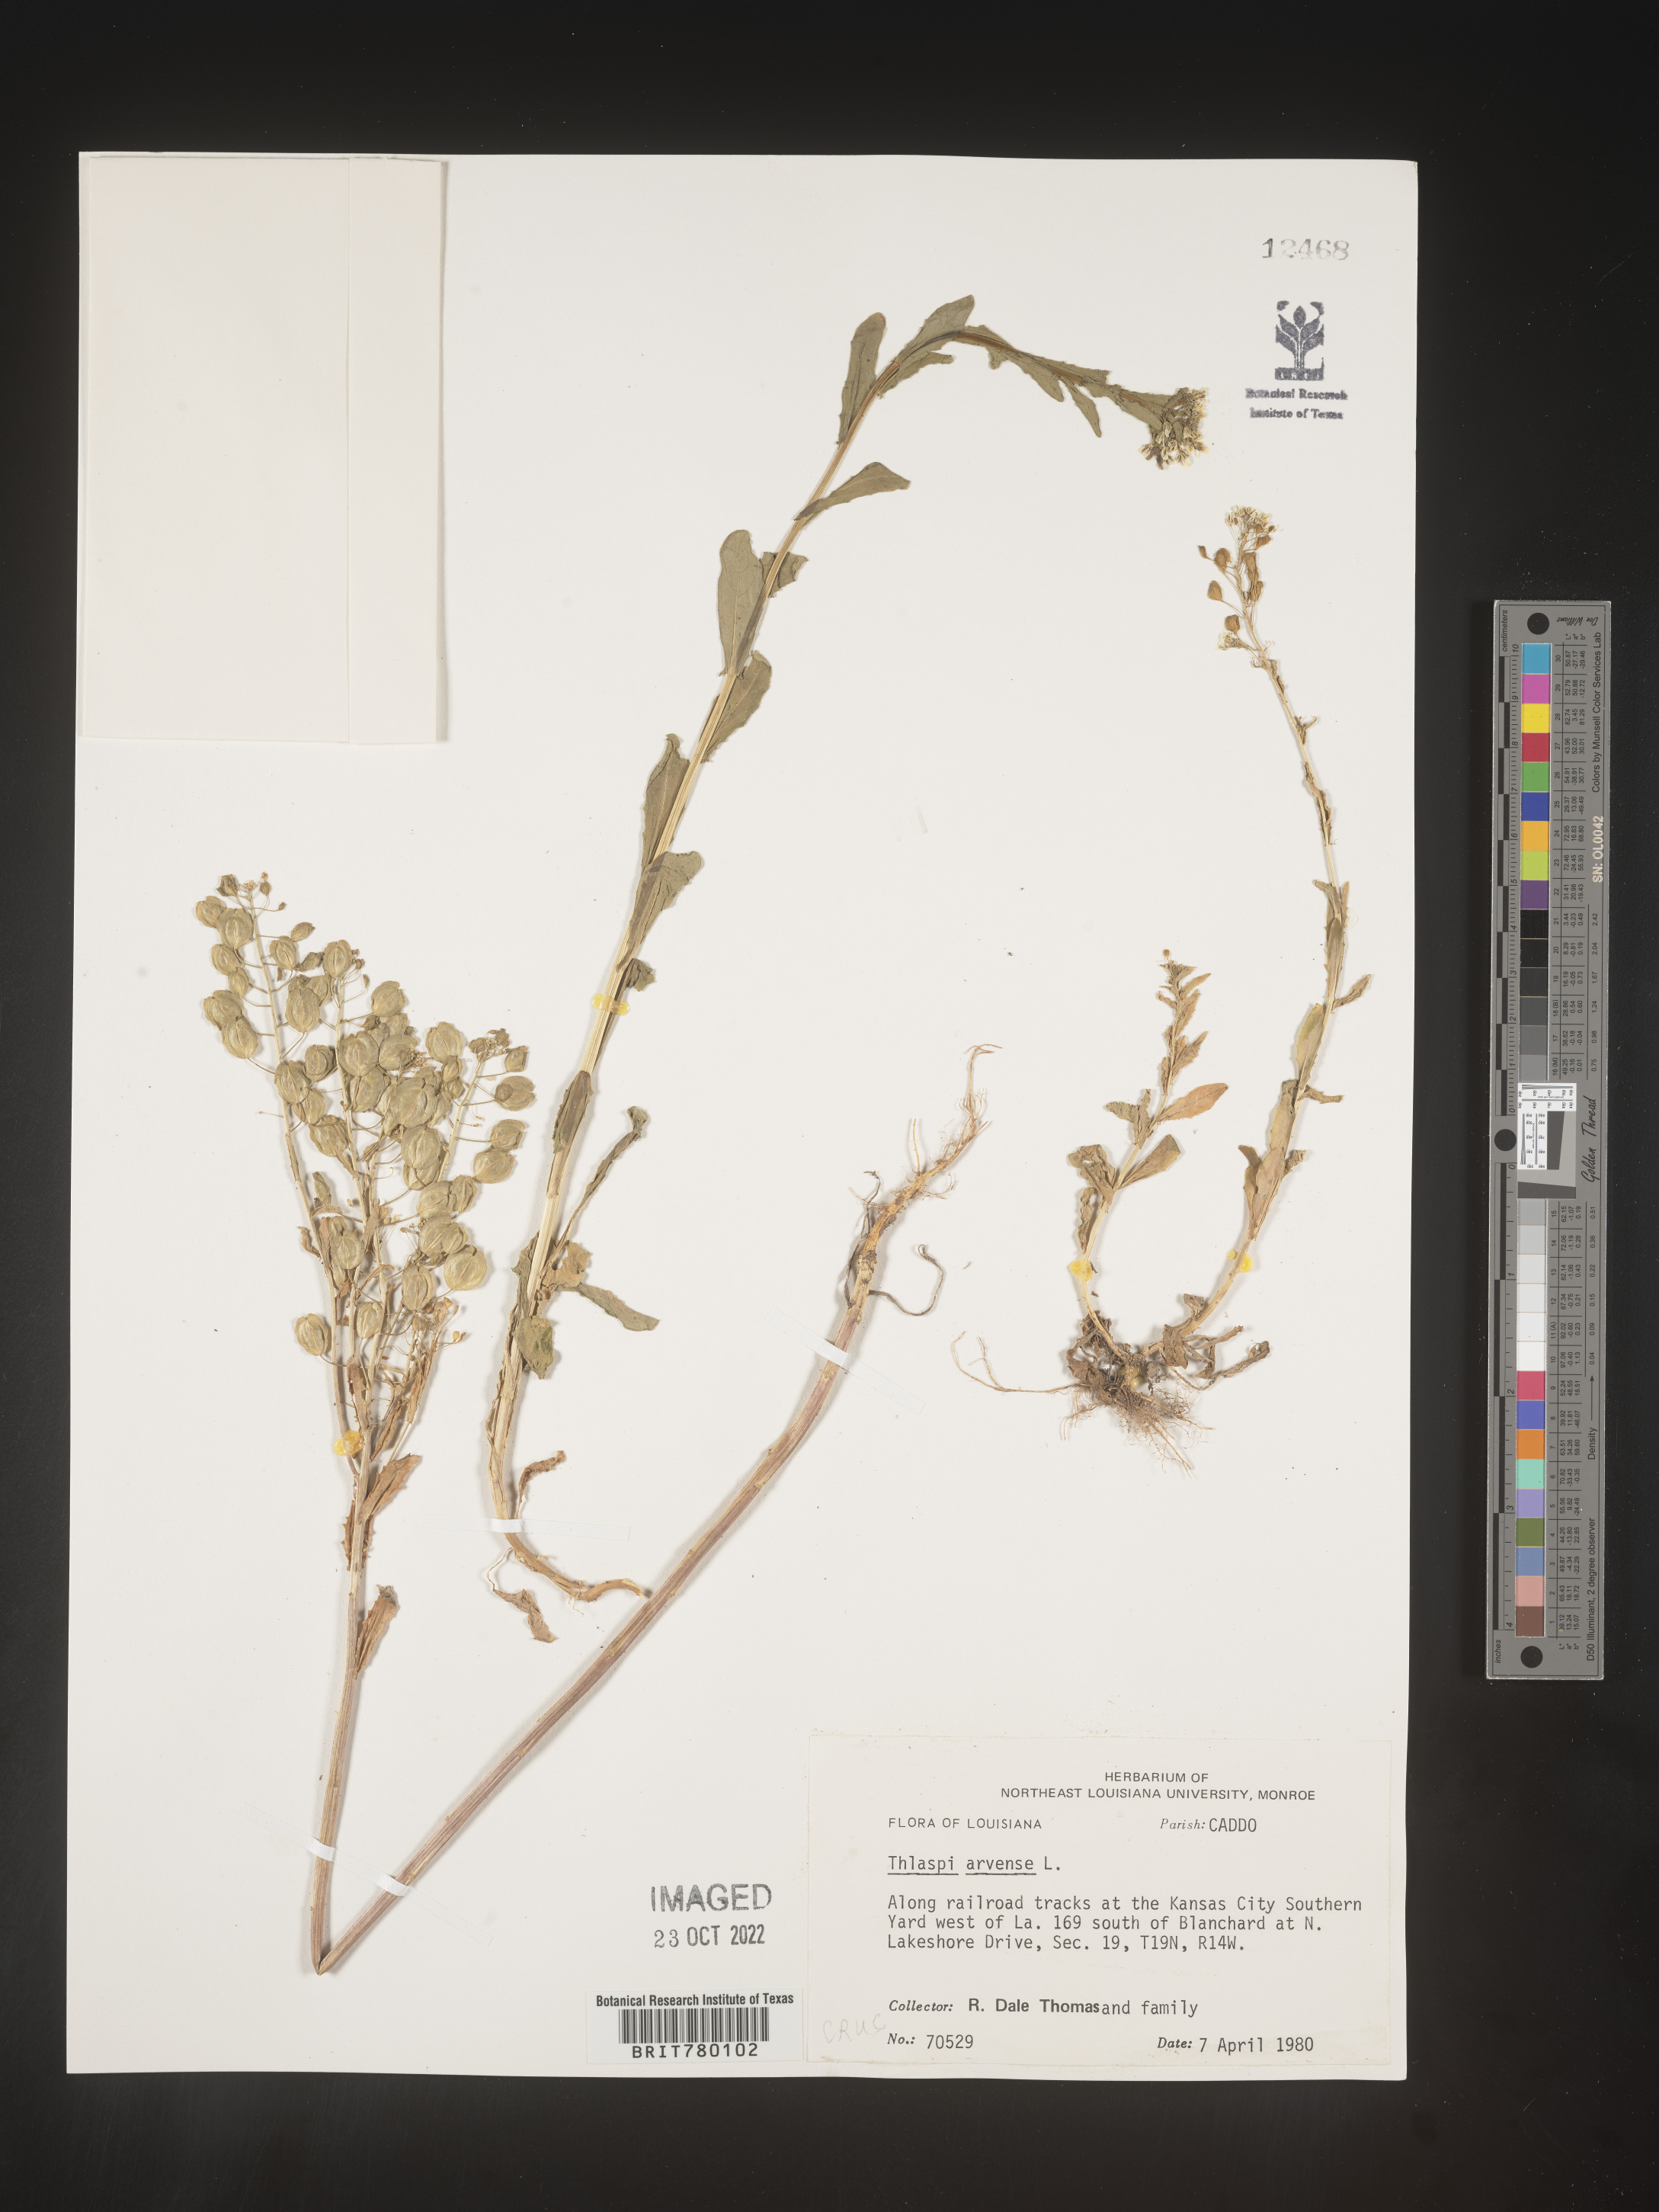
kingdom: Plantae
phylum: Tracheophyta
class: Magnoliopsida
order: Brassicales
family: Brassicaceae
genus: Thlaspi
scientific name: Thlaspi arvense
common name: Field pennycress
